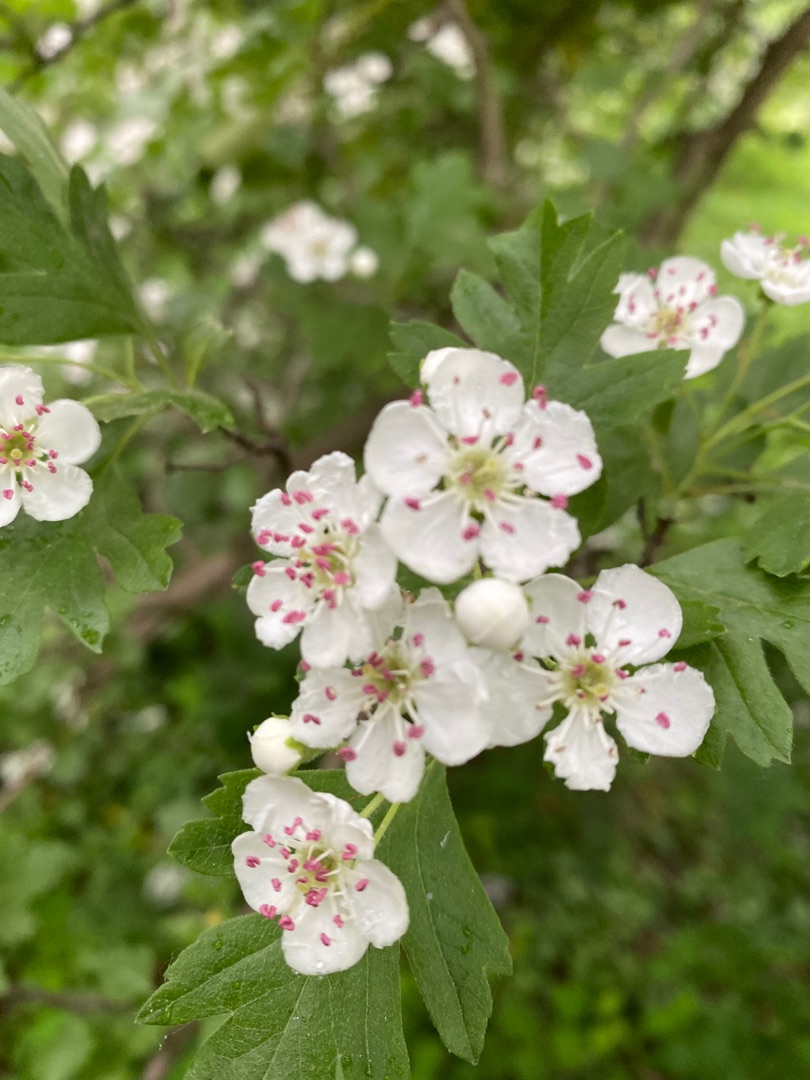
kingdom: Plantae
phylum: Tracheophyta
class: Magnoliopsida
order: Rosales
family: Rosaceae
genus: Crataegus
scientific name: Crataegus monogyna
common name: Engriflet hvidtjørn
